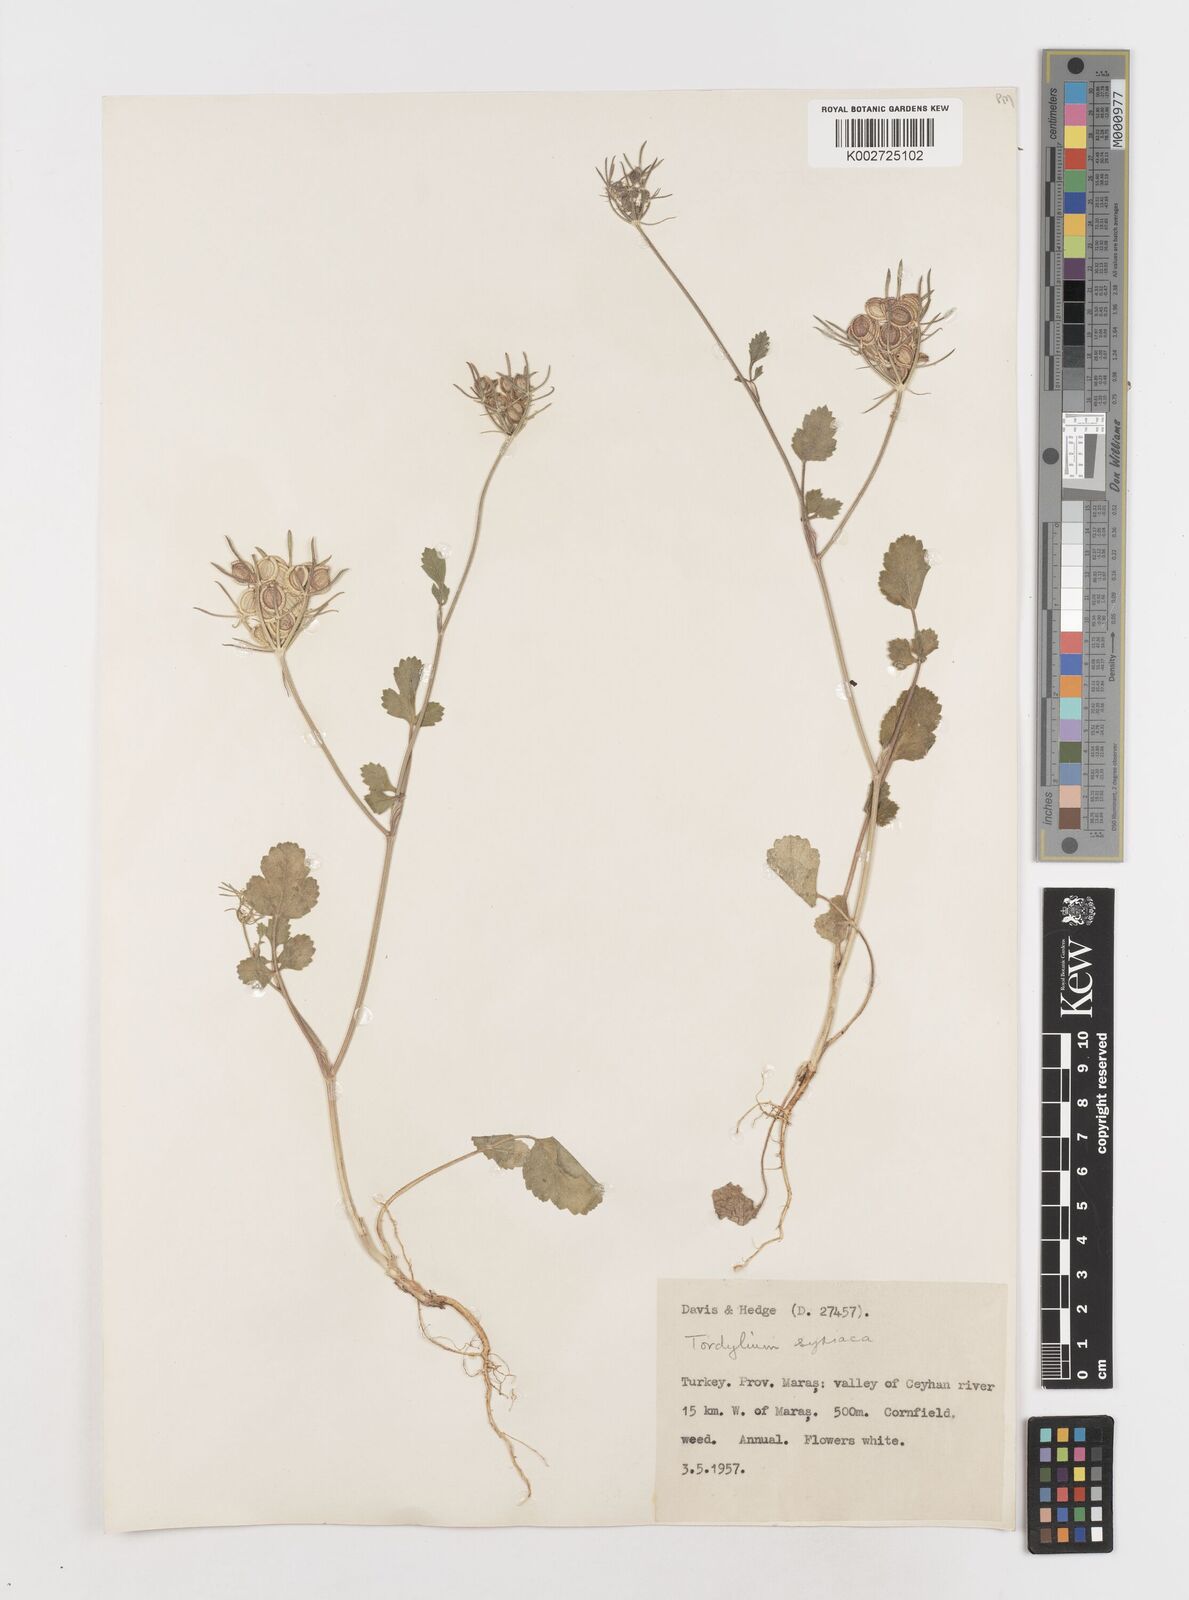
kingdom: Plantae
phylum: Tracheophyta
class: Magnoliopsida
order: Apiales
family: Apiaceae
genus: Tordylium
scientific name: Tordylium syriacum
